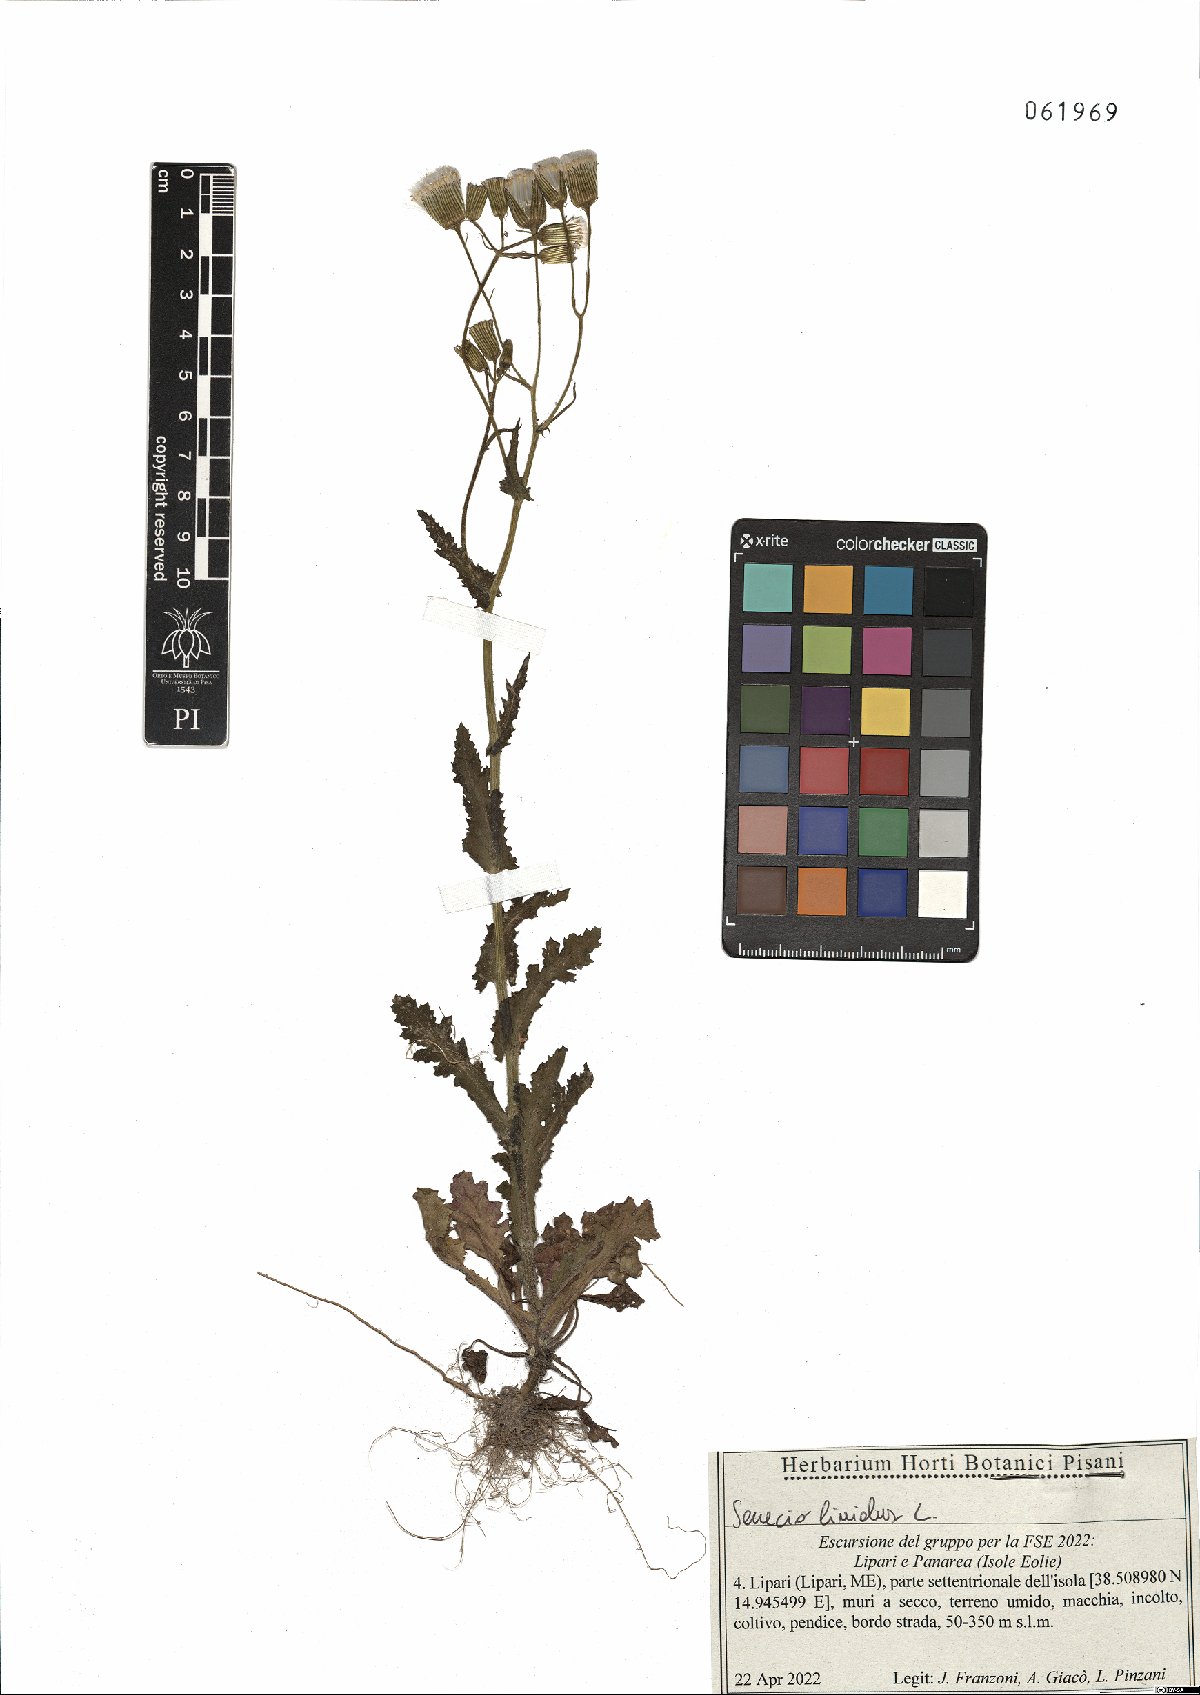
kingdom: Plantae
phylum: Tracheophyta
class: Magnoliopsida
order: Asterales
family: Asteraceae
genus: Senecio
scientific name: Senecio lividus
